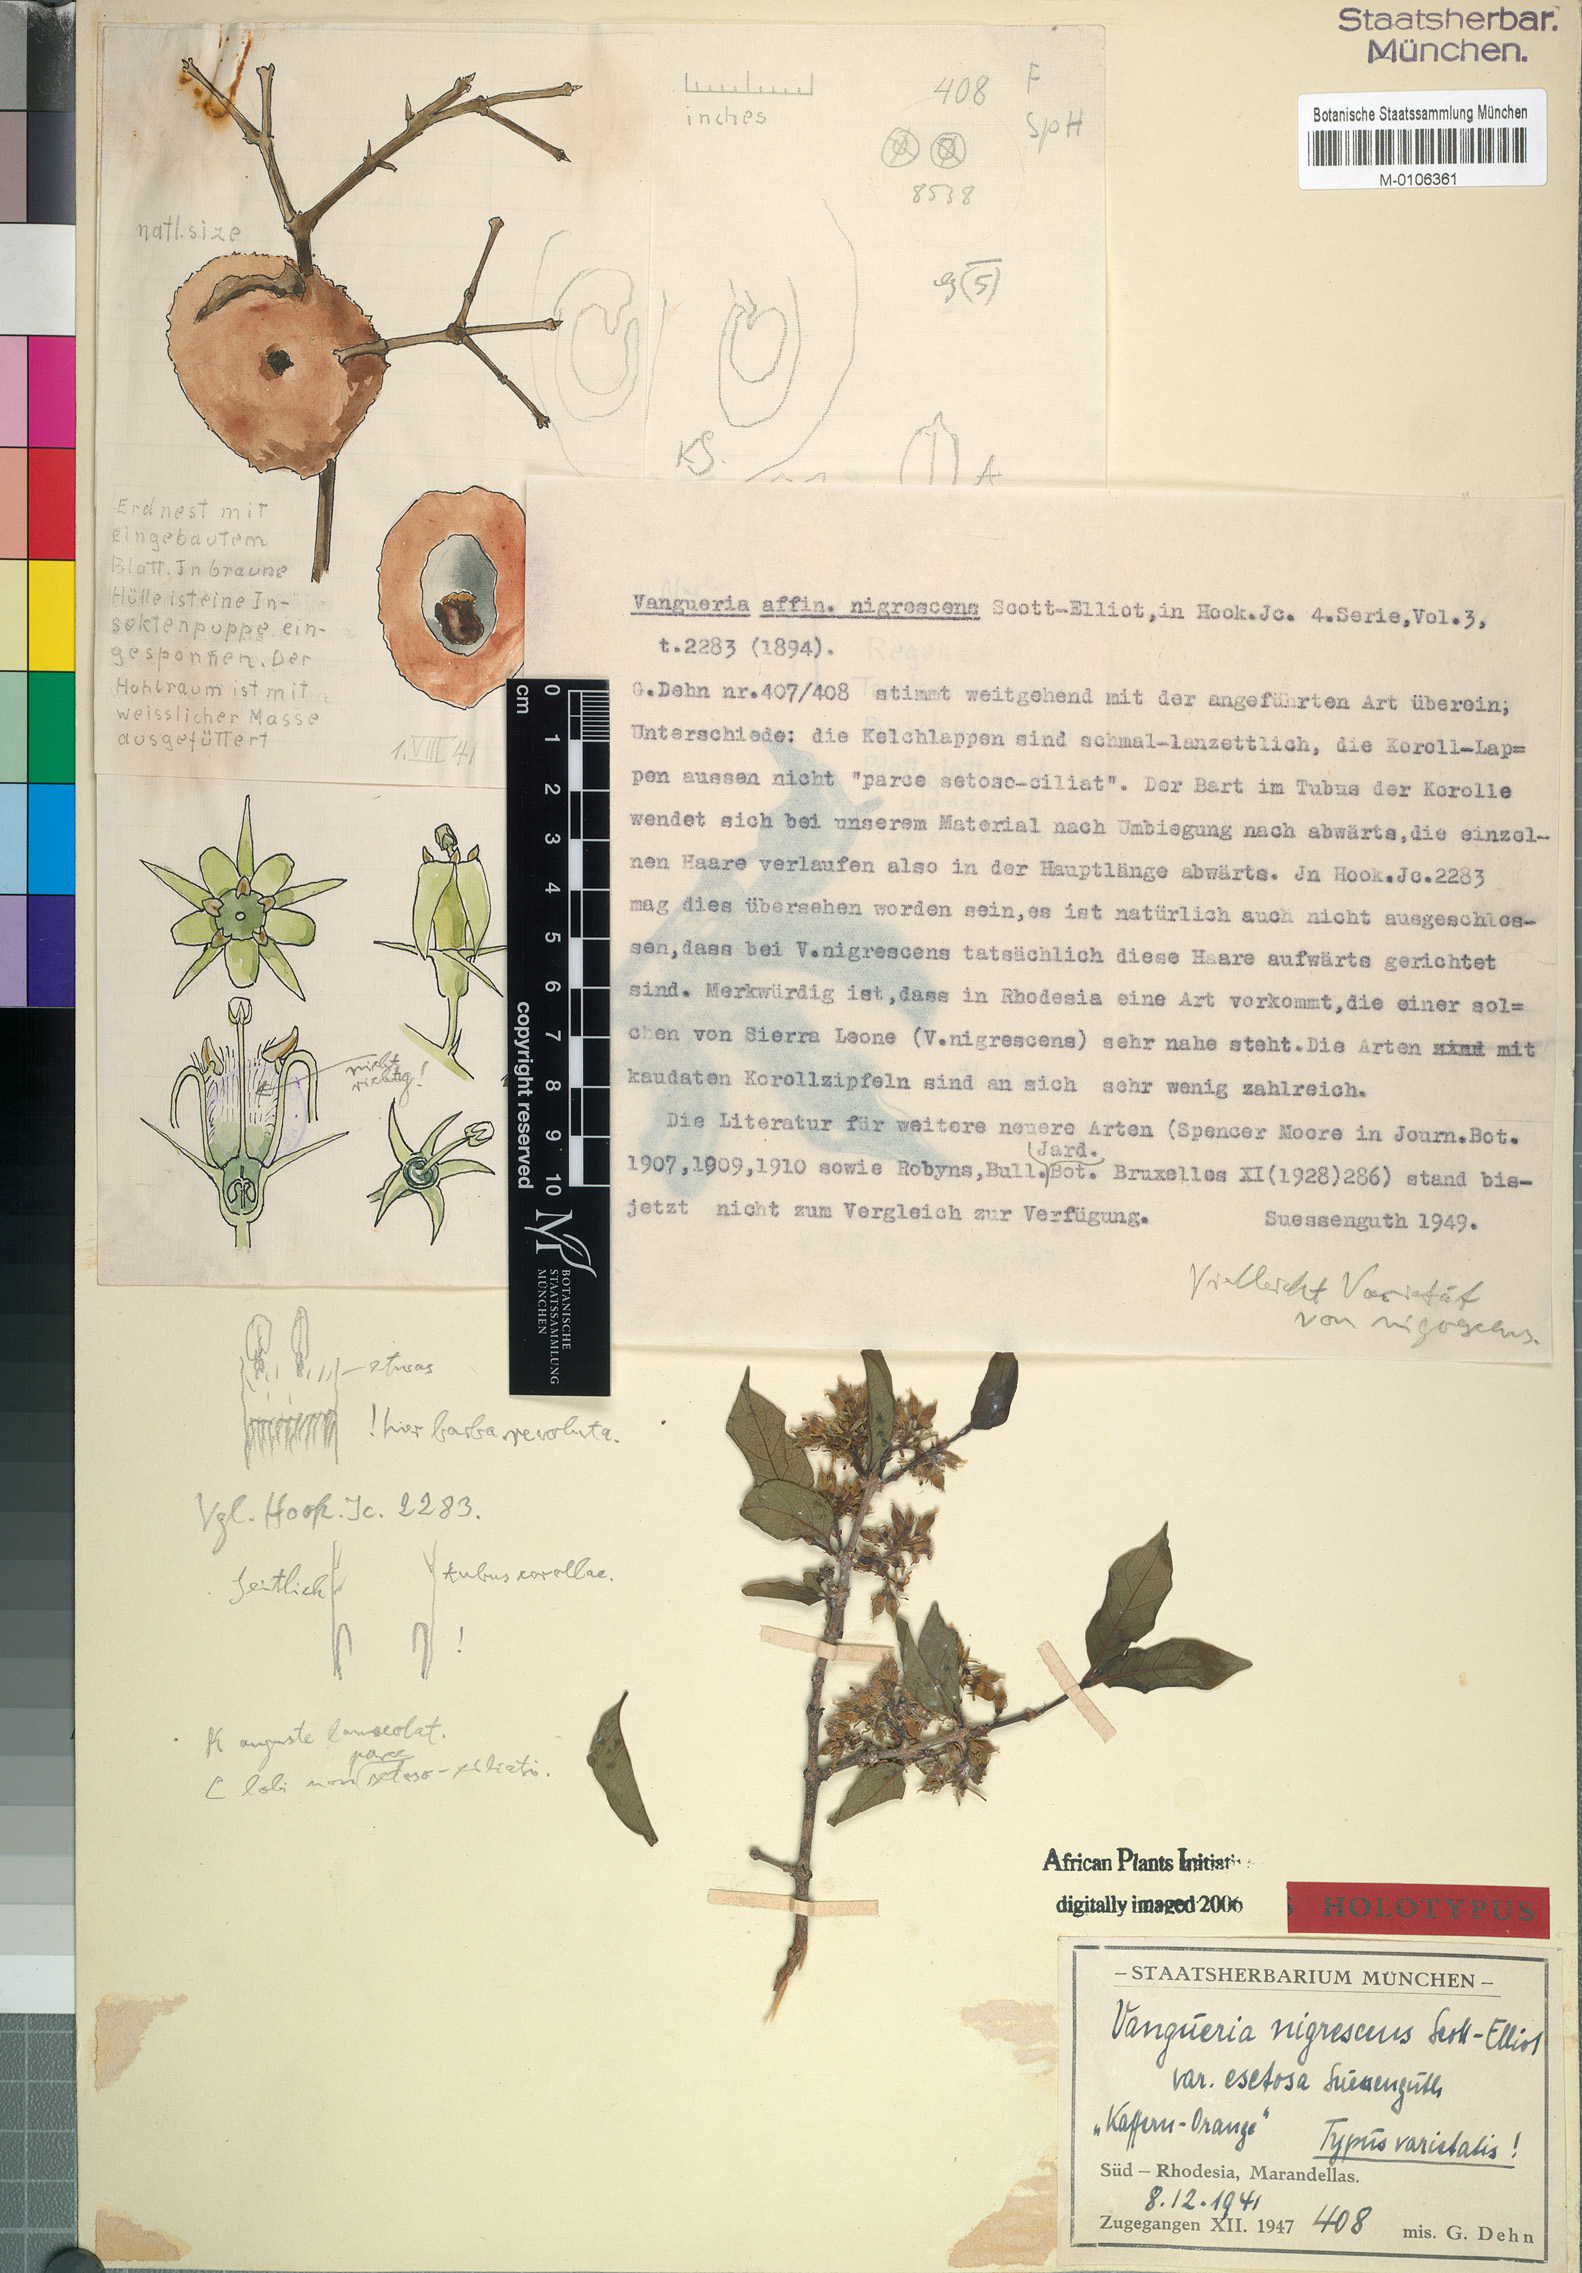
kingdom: Plantae
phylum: Tracheophyta
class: Magnoliopsida
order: Gentianales
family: Rubiaceae
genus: Cuviera
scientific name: Cuviera nigrescens
